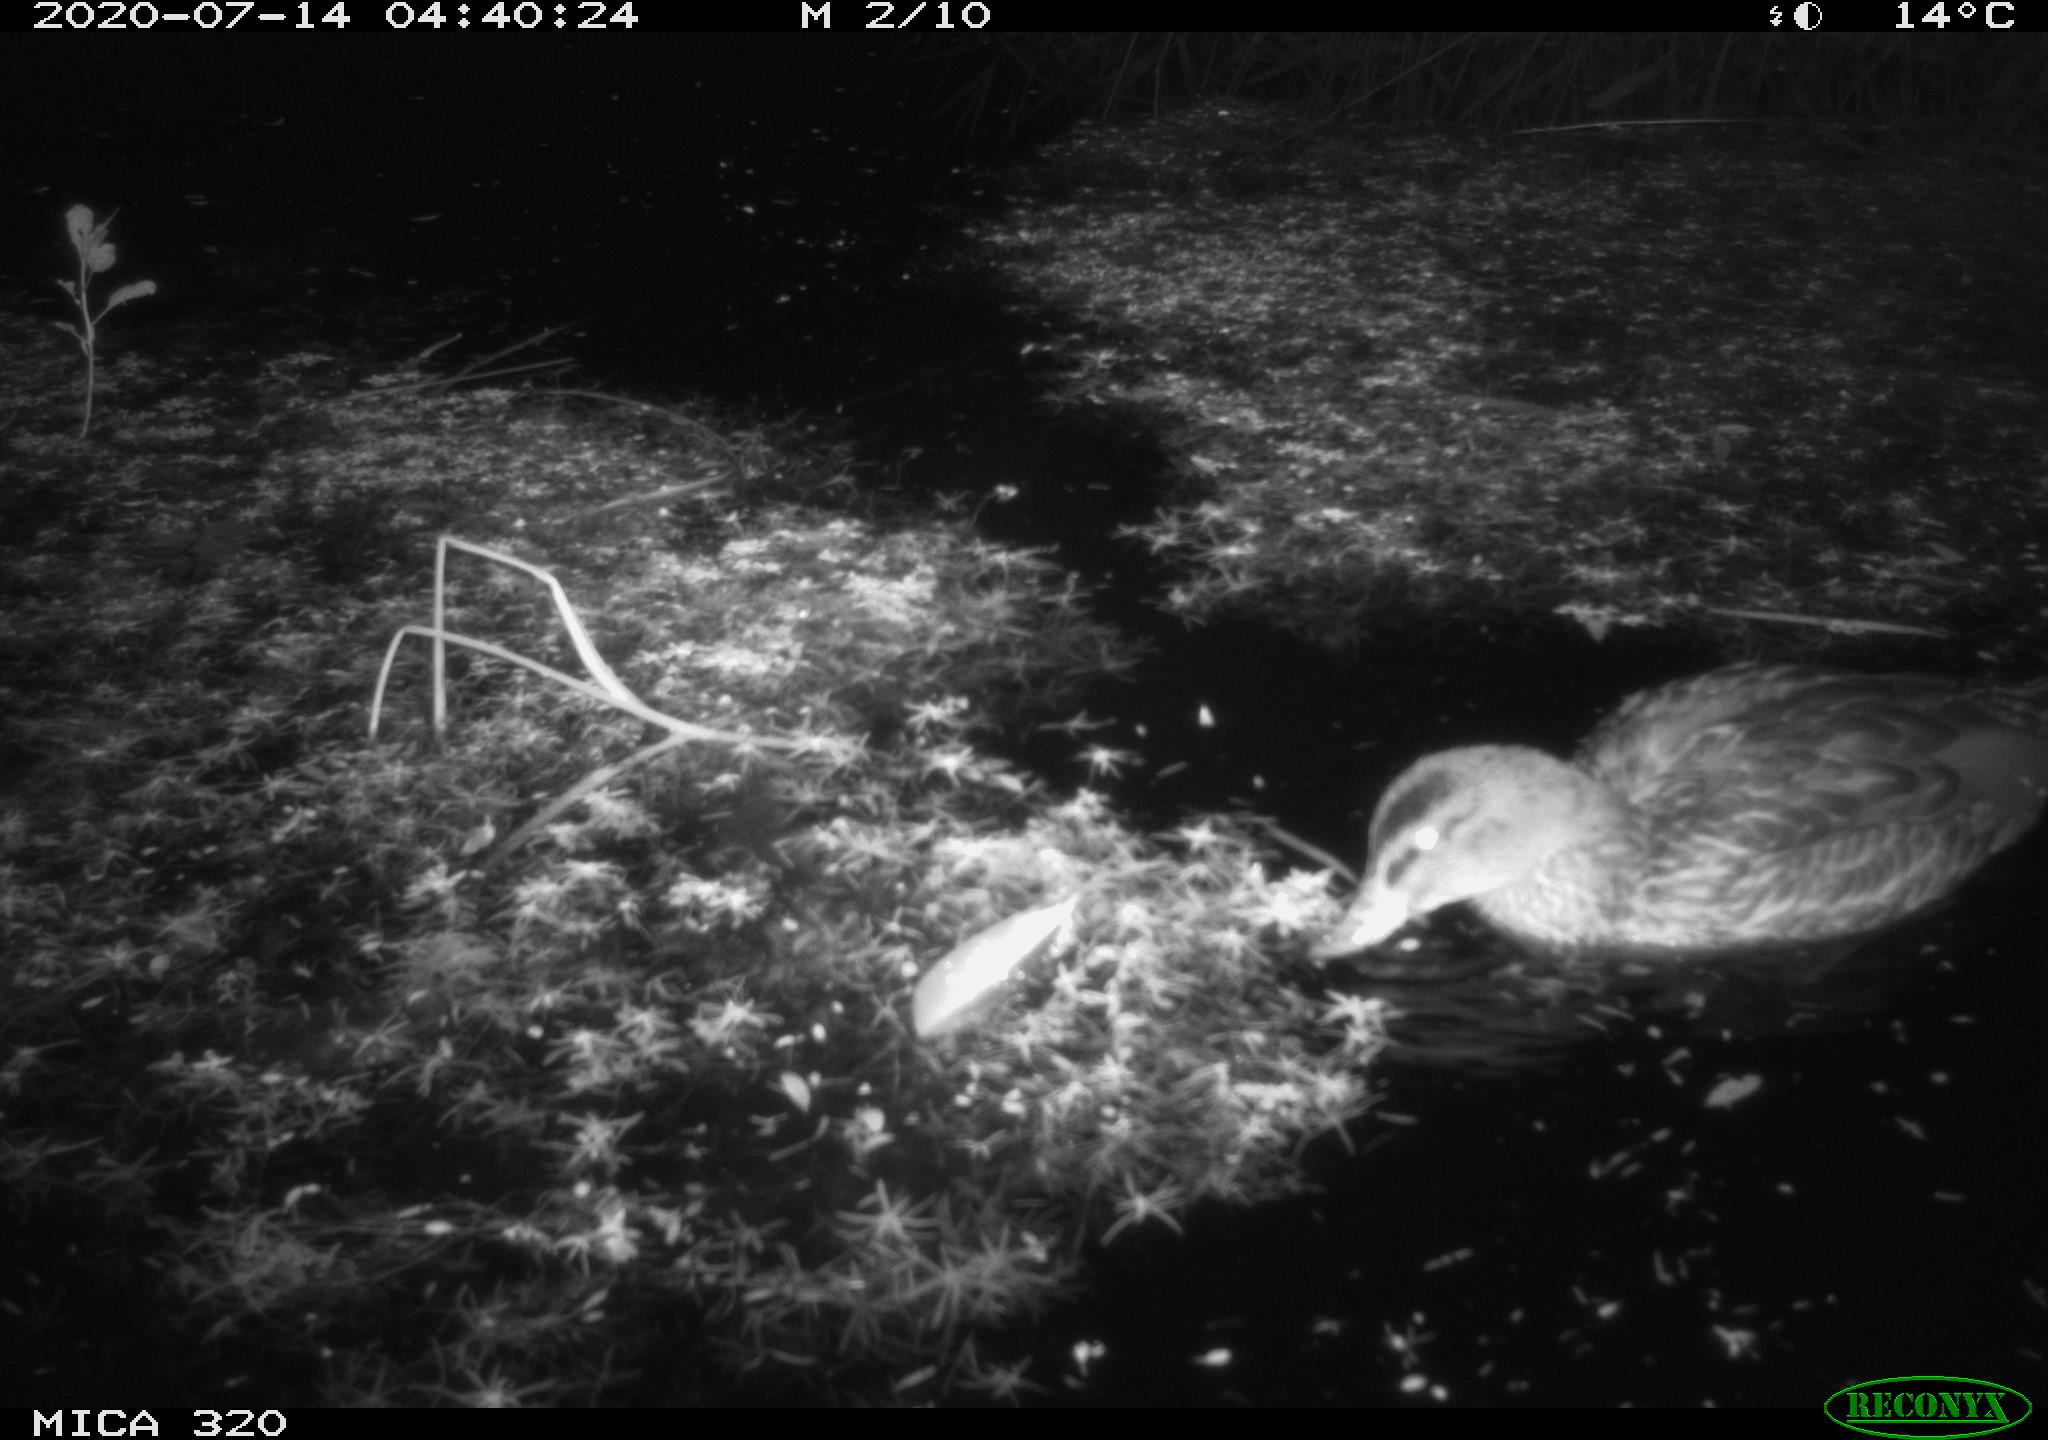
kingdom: Animalia
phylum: Chordata
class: Aves
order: Anseriformes
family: Anatidae
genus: Anas
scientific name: Anas platyrhynchos
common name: Mallard
